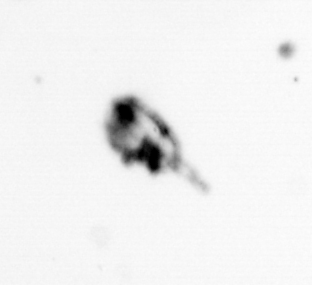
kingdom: Chromista
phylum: Myzozoa
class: Dinophyceae
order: Noctilucales
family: Noctilucaceae
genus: Noctiluca
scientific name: Noctiluca scintillans
